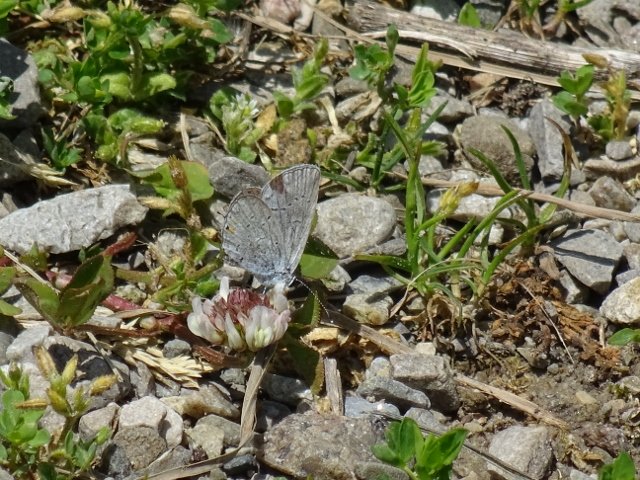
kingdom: Animalia
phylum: Arthropoda
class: Insecta
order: Lepidoptera
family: Lycaenidae
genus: Elkalyce
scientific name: Elkalyce comyntas
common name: Eastern Tailed-Blue
